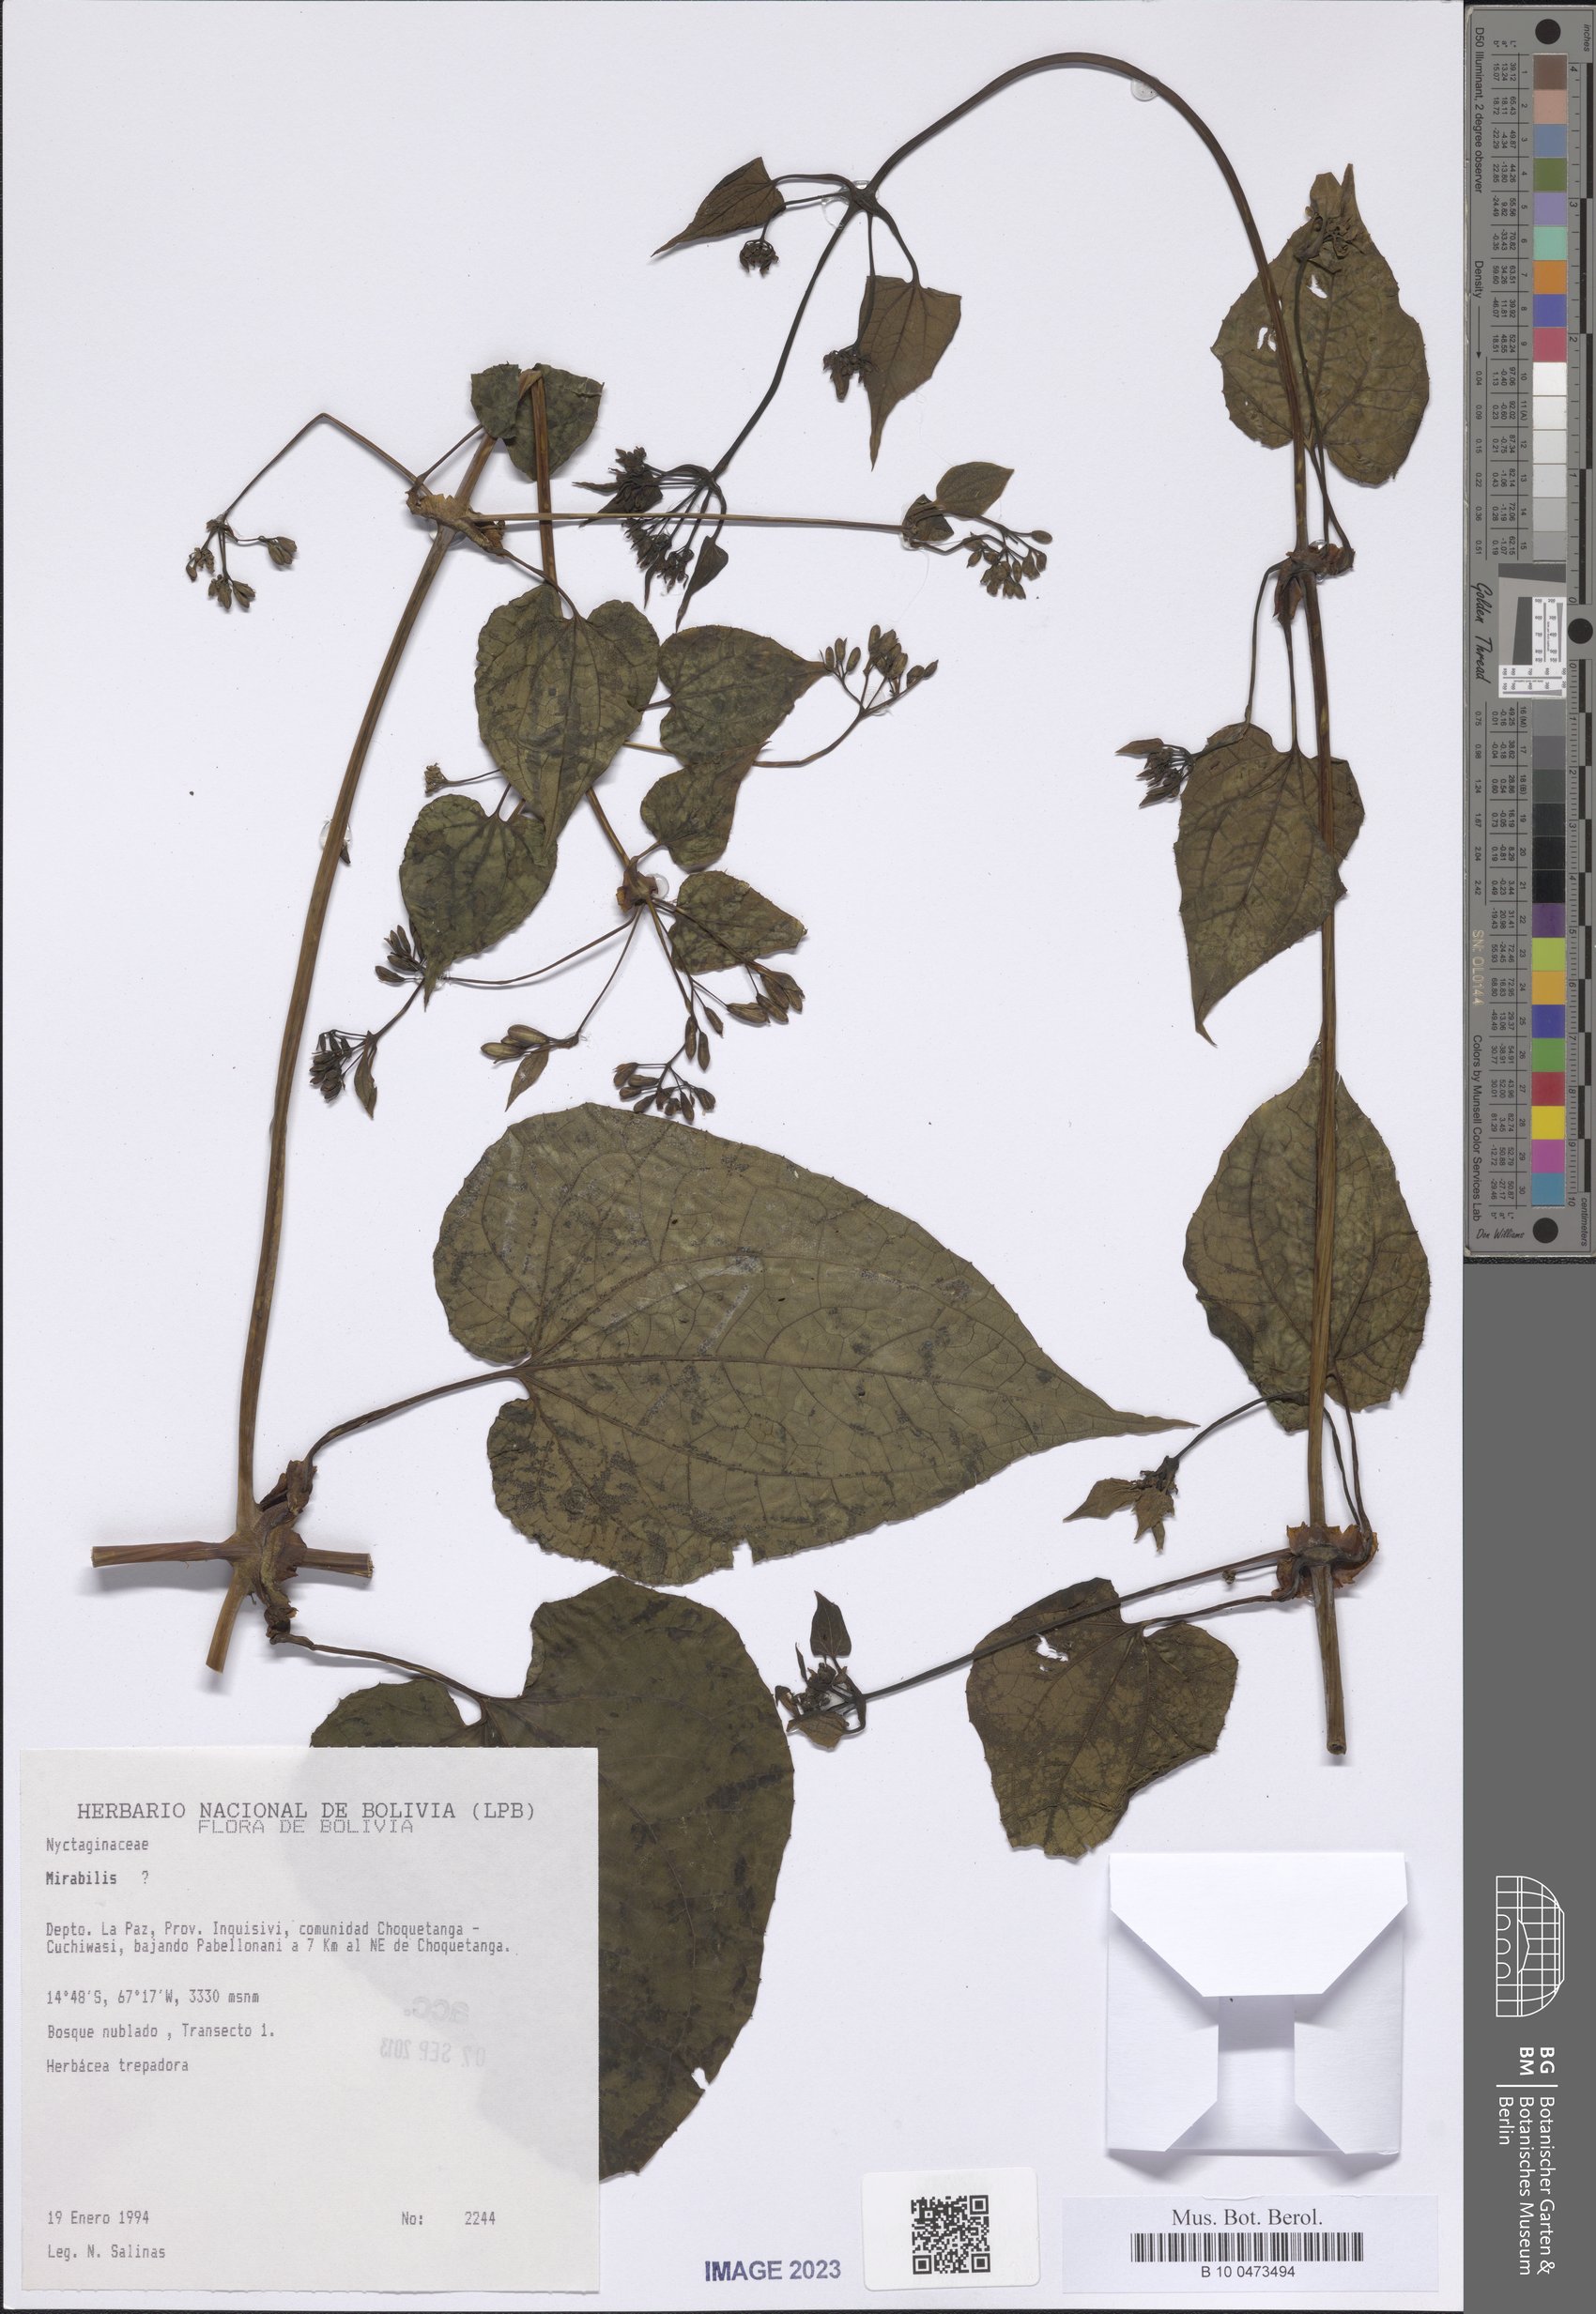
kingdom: Plantae
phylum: Tracheophyta
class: Magnoliopsida
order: Caryophyllales
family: Nyctaginaceae
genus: Mirabilis
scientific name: Mirabilis
